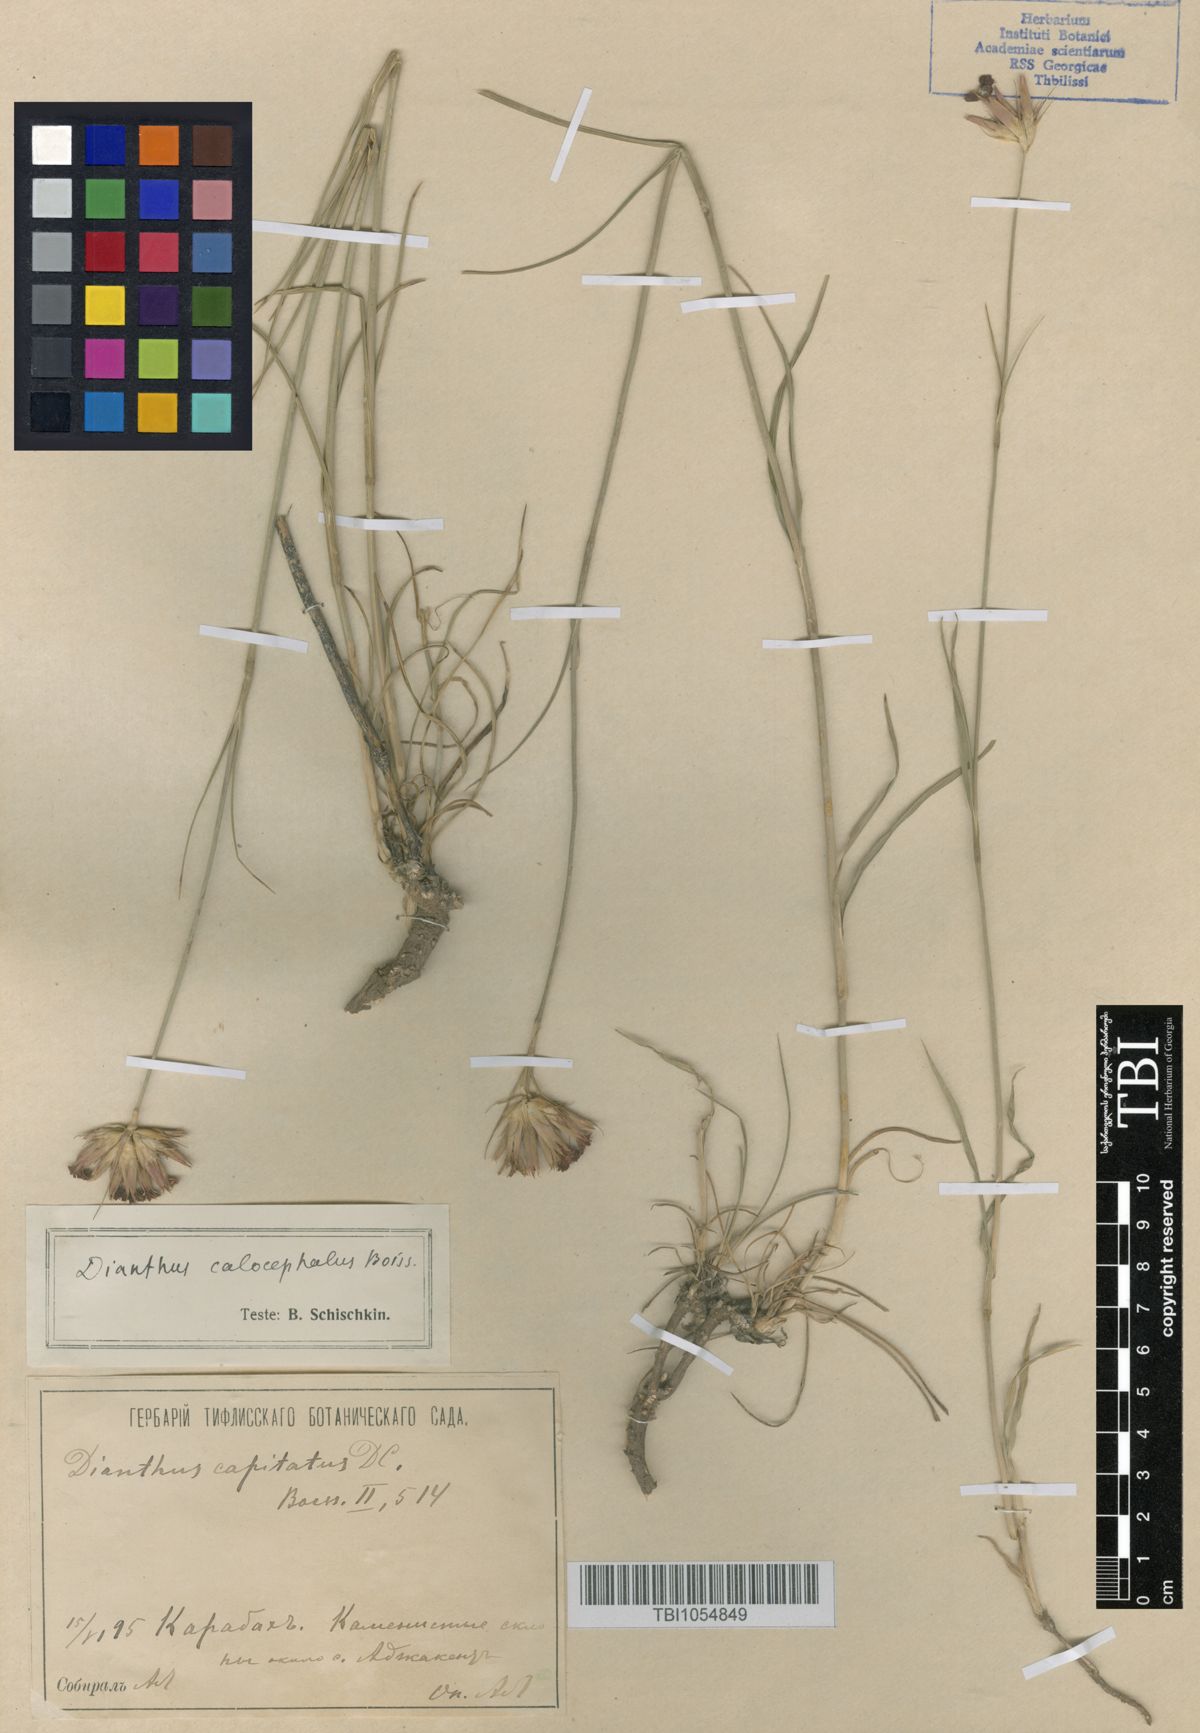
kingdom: Plantae
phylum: Tracheophyta
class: Magnoliopsida
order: Caryophyllales
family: Caryophyllaceae
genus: Dianthus
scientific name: Dianthus cruentus
